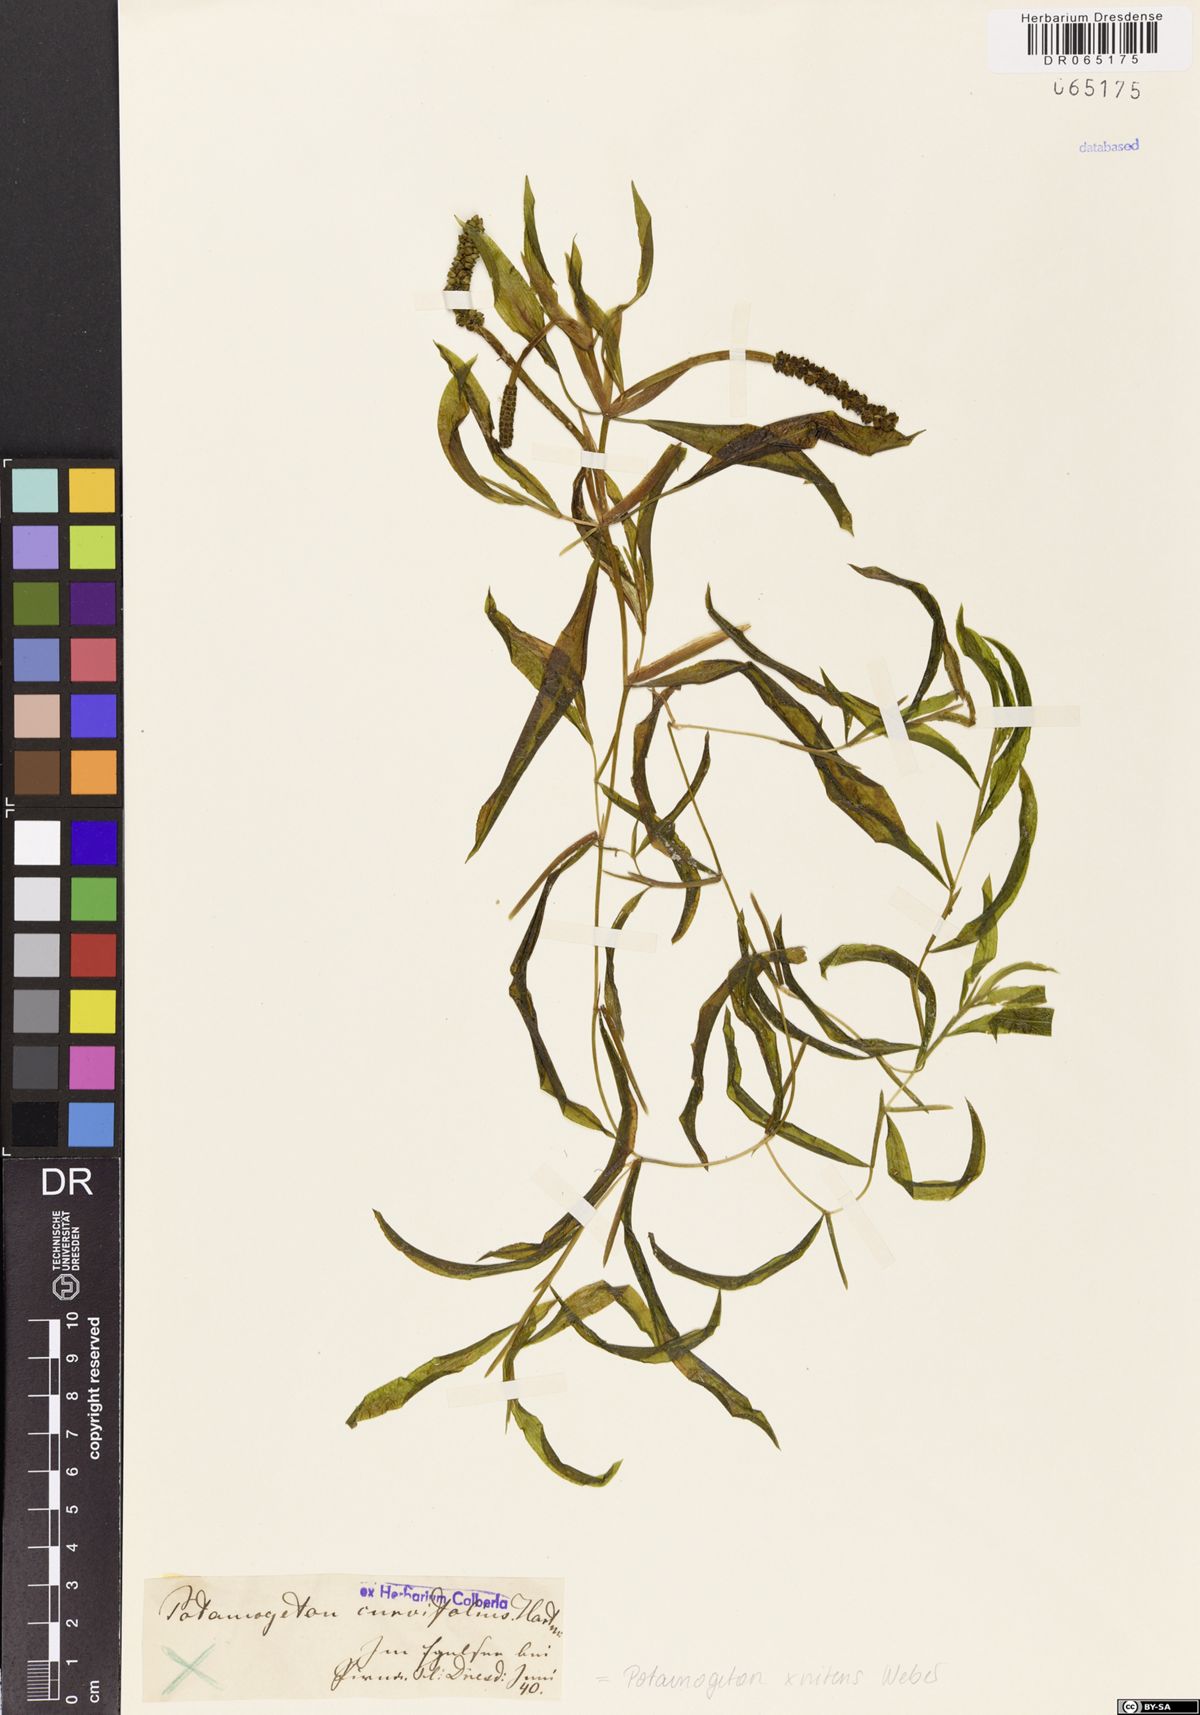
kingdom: Plantae
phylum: Tracheophyta
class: Liliopsida
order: Alismatales
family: Potamogetonaceae
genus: Potamogeton
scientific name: Potamogeton nitens
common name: Pondweed
